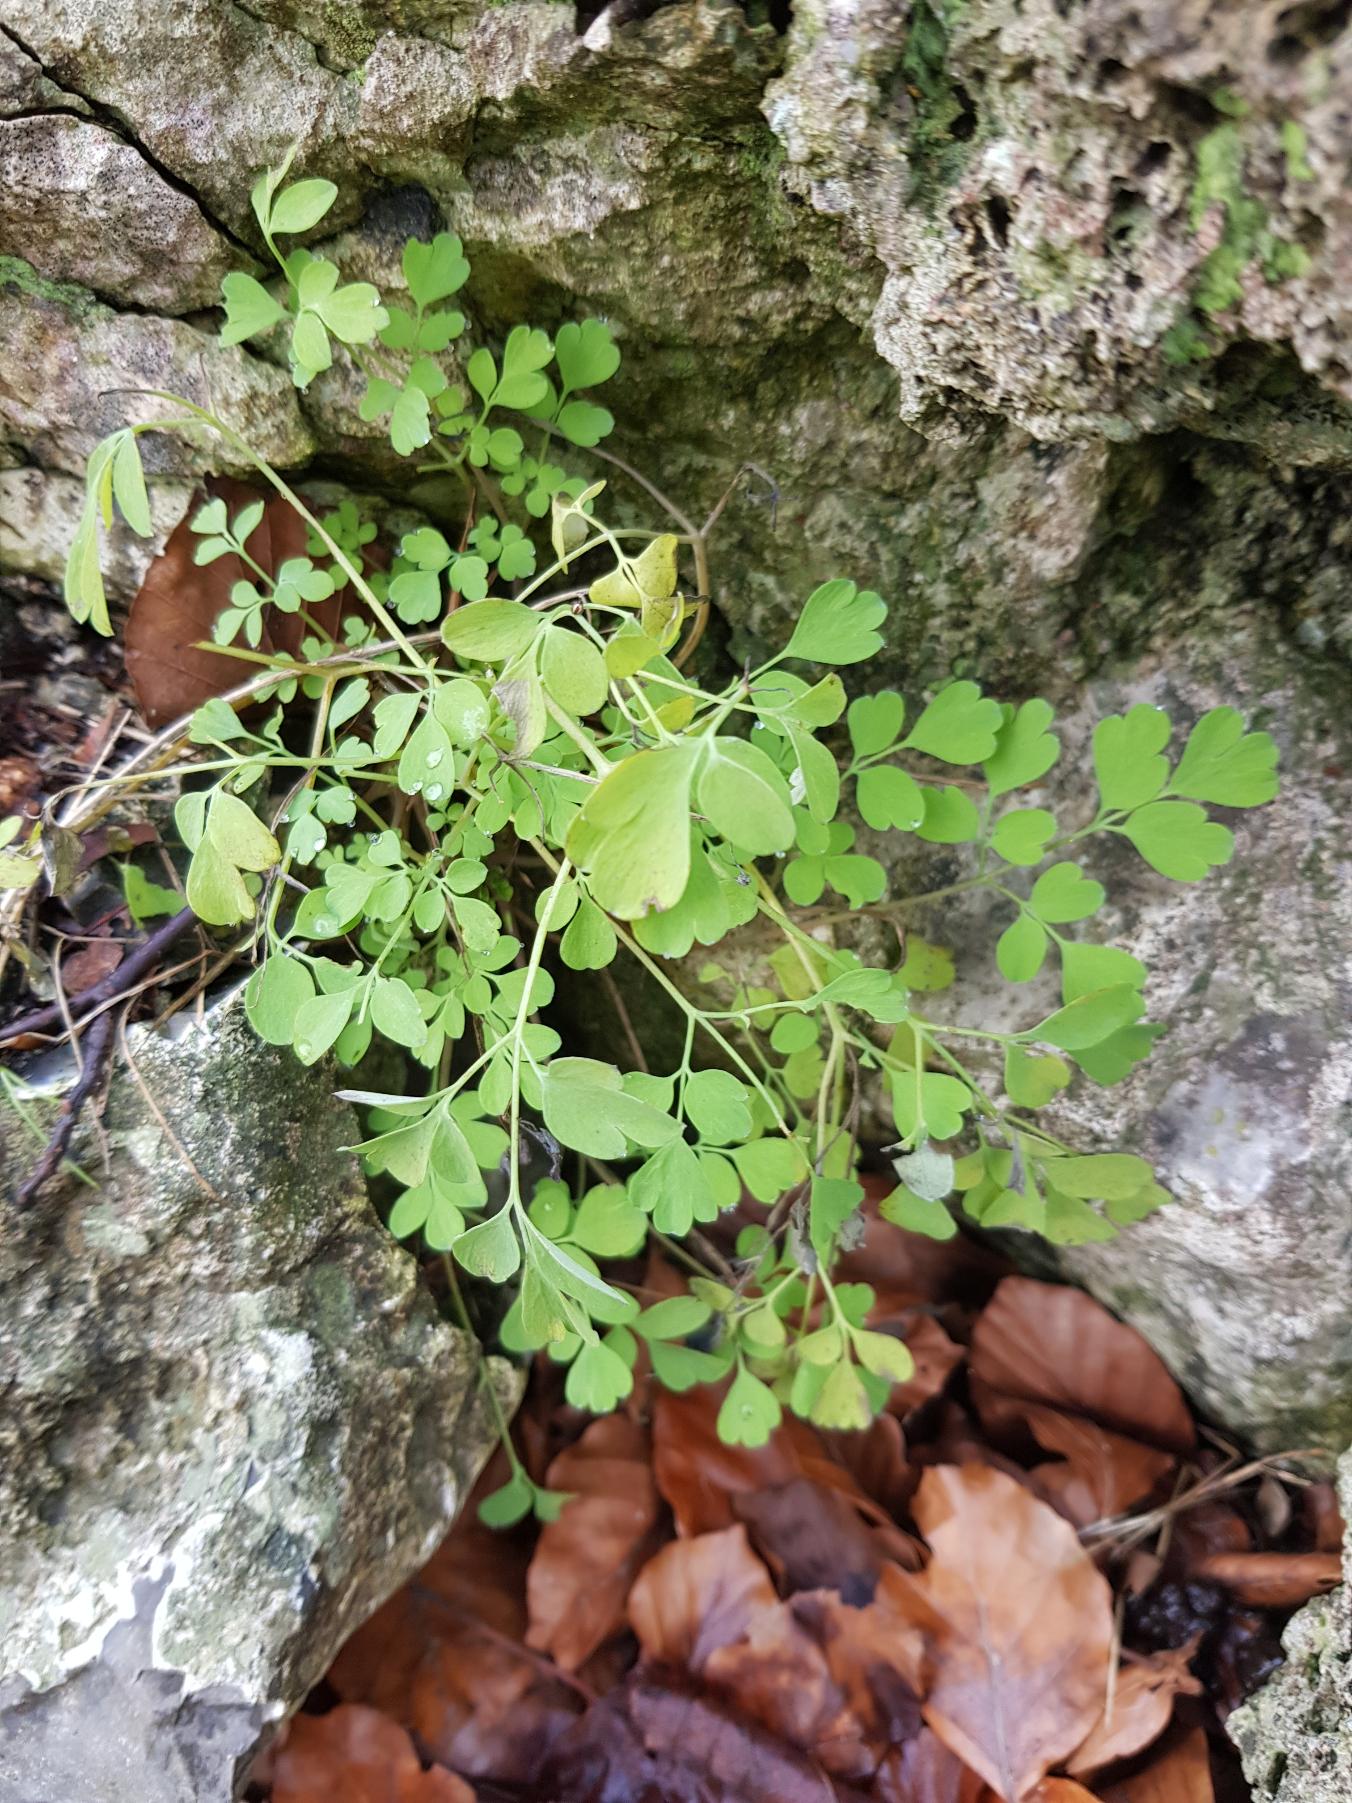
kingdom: Plantae
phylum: Tracheophyta
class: Magnoliopsida
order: Ranunculales
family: Papaveraceae
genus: Pseudofumaria
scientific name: Pseudofumaria lutea
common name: Gul lærkespore
